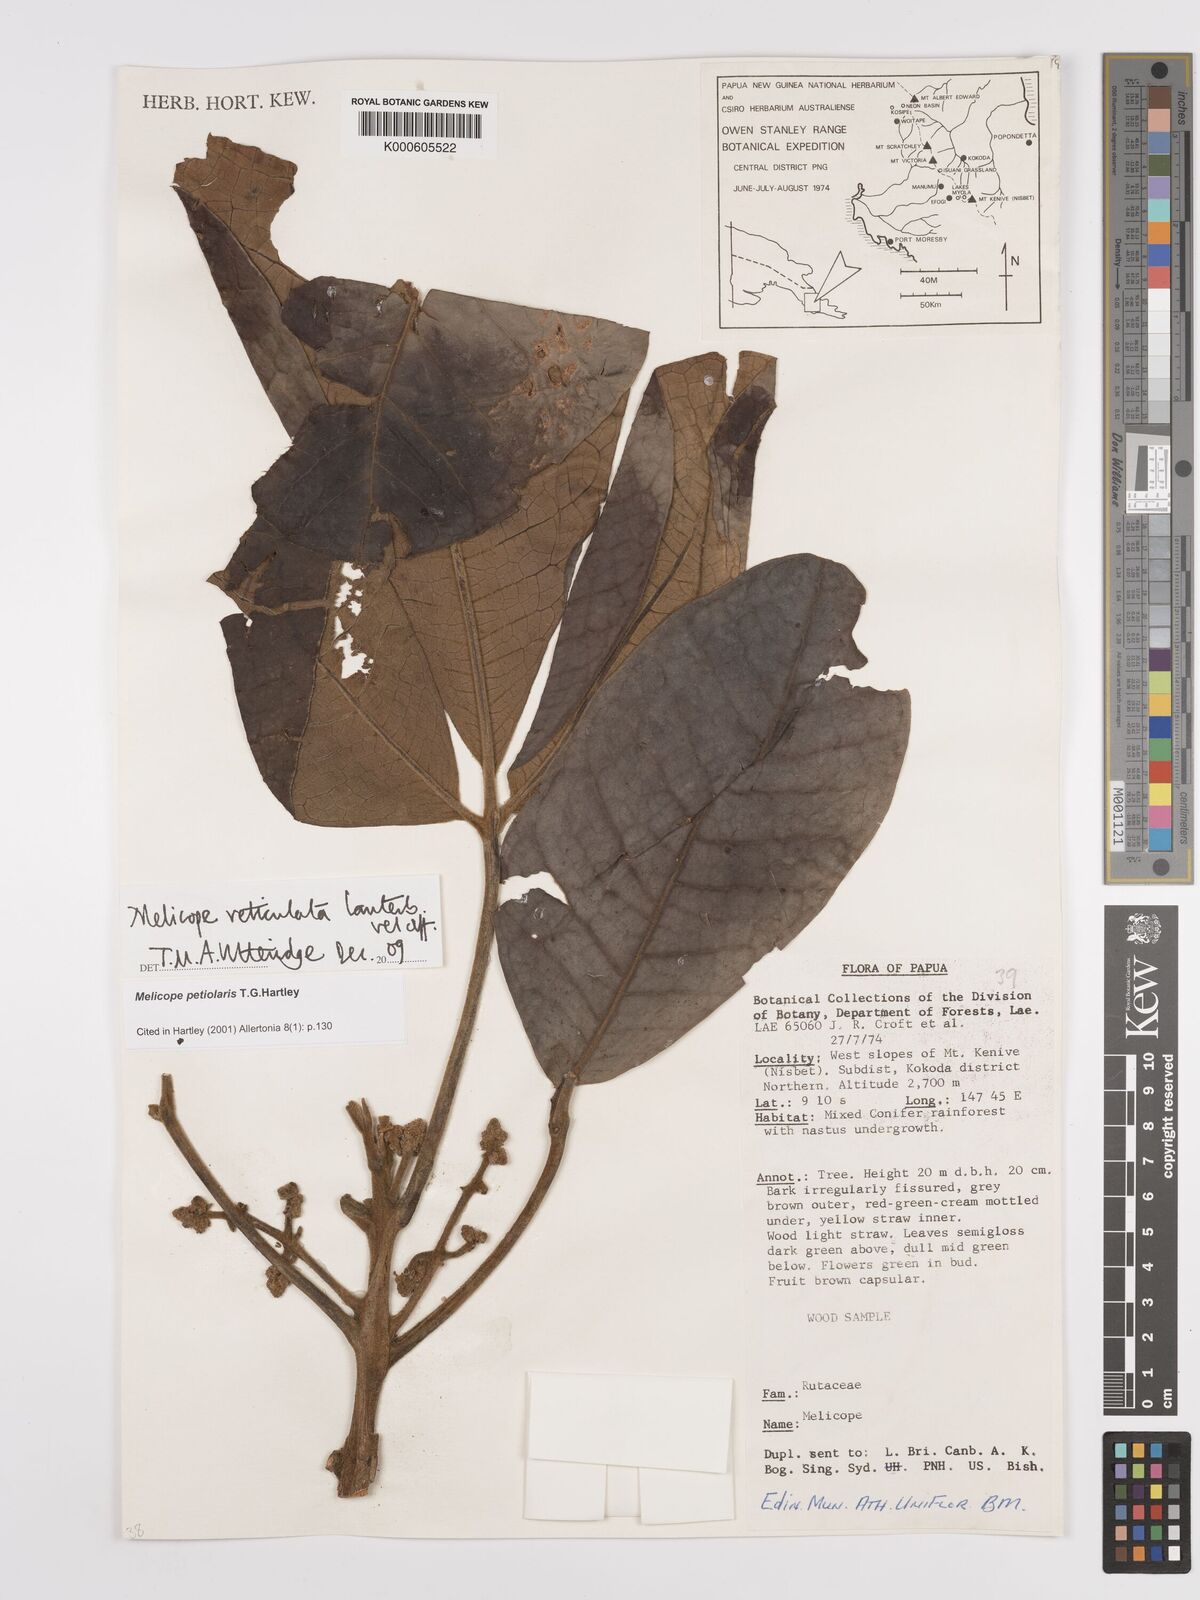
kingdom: Plantae
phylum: Tracheophyta
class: Magnoliopsida
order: Sapindales
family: Rutaceae
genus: Melicope
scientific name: Melicope reticulata
